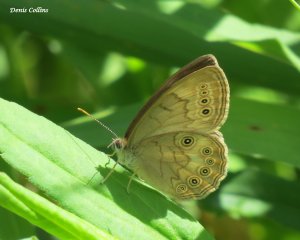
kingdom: Animalia
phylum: Arthropoda
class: Insecta
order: Lepidoptera
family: Nymphalidae
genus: Lethe
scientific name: Lethe eurydice
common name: Eyed Brown
